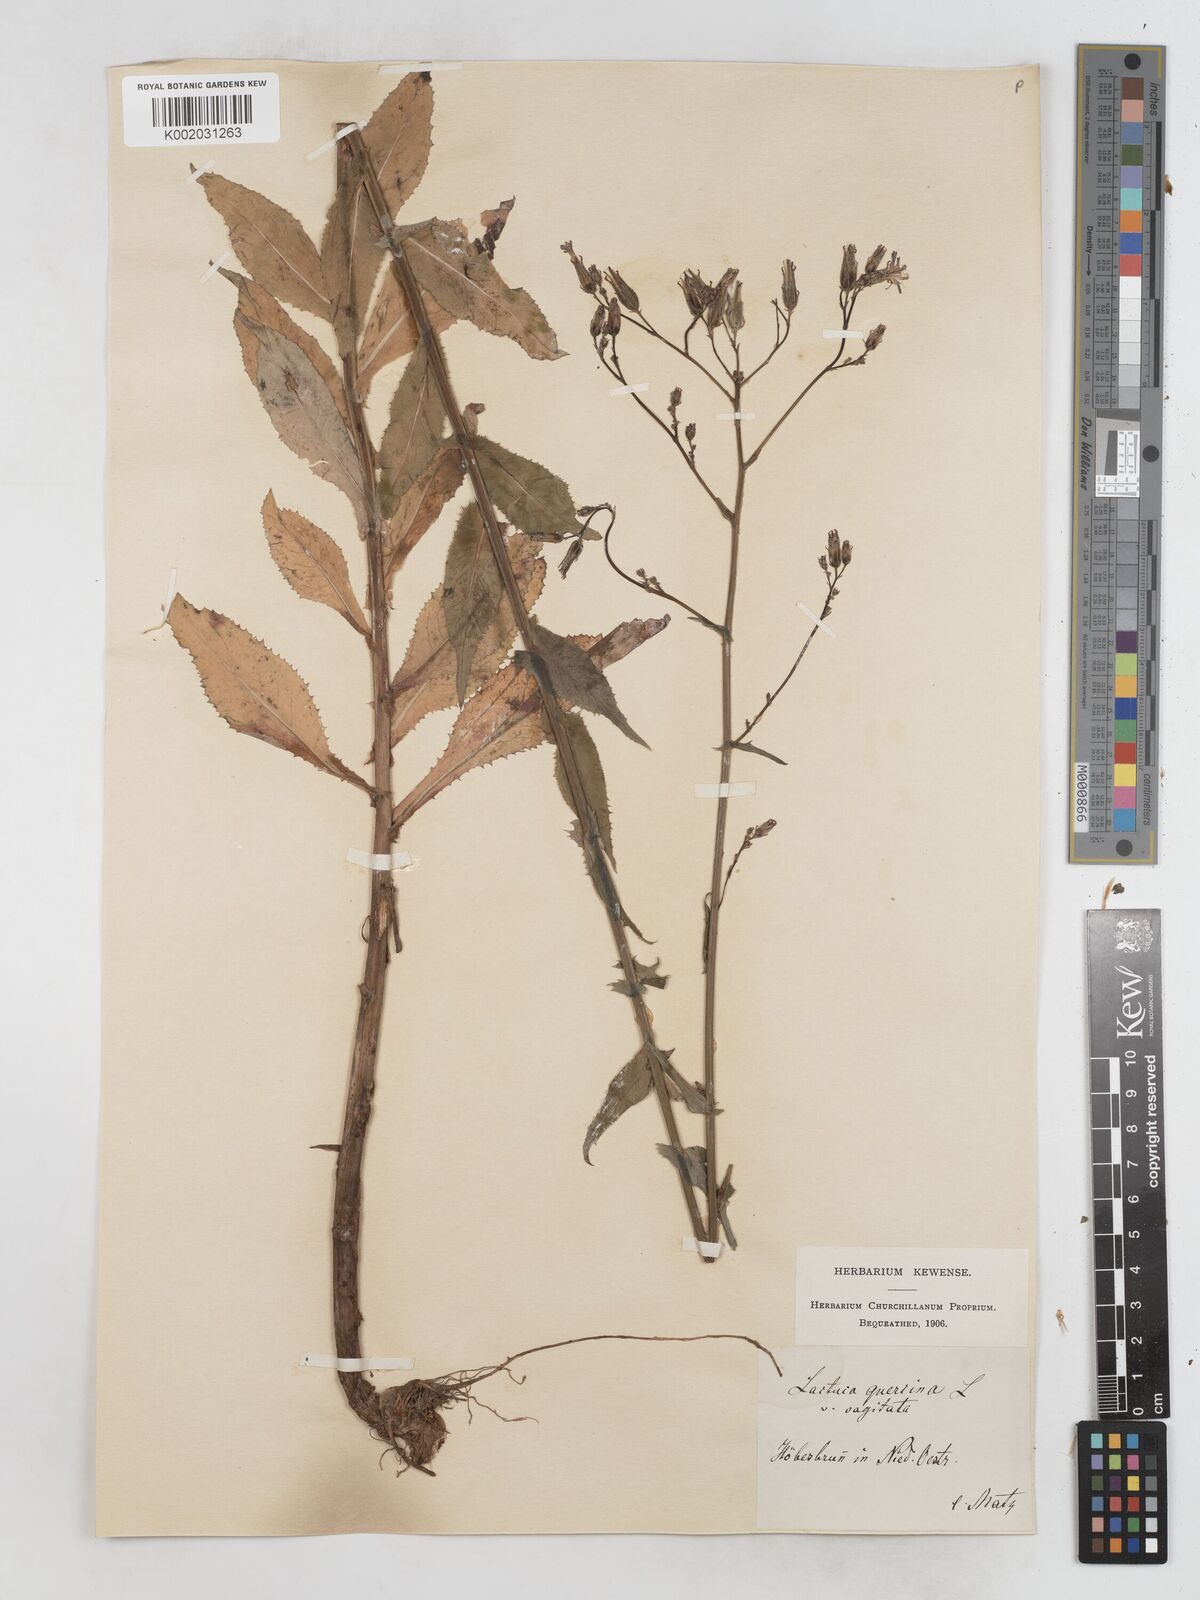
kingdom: Plantae
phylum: Tracheophyta
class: Magnoliopsida
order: Asterales
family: Asteraceae
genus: Lactuca
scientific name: Lactuca quercina
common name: Wild lettuce
